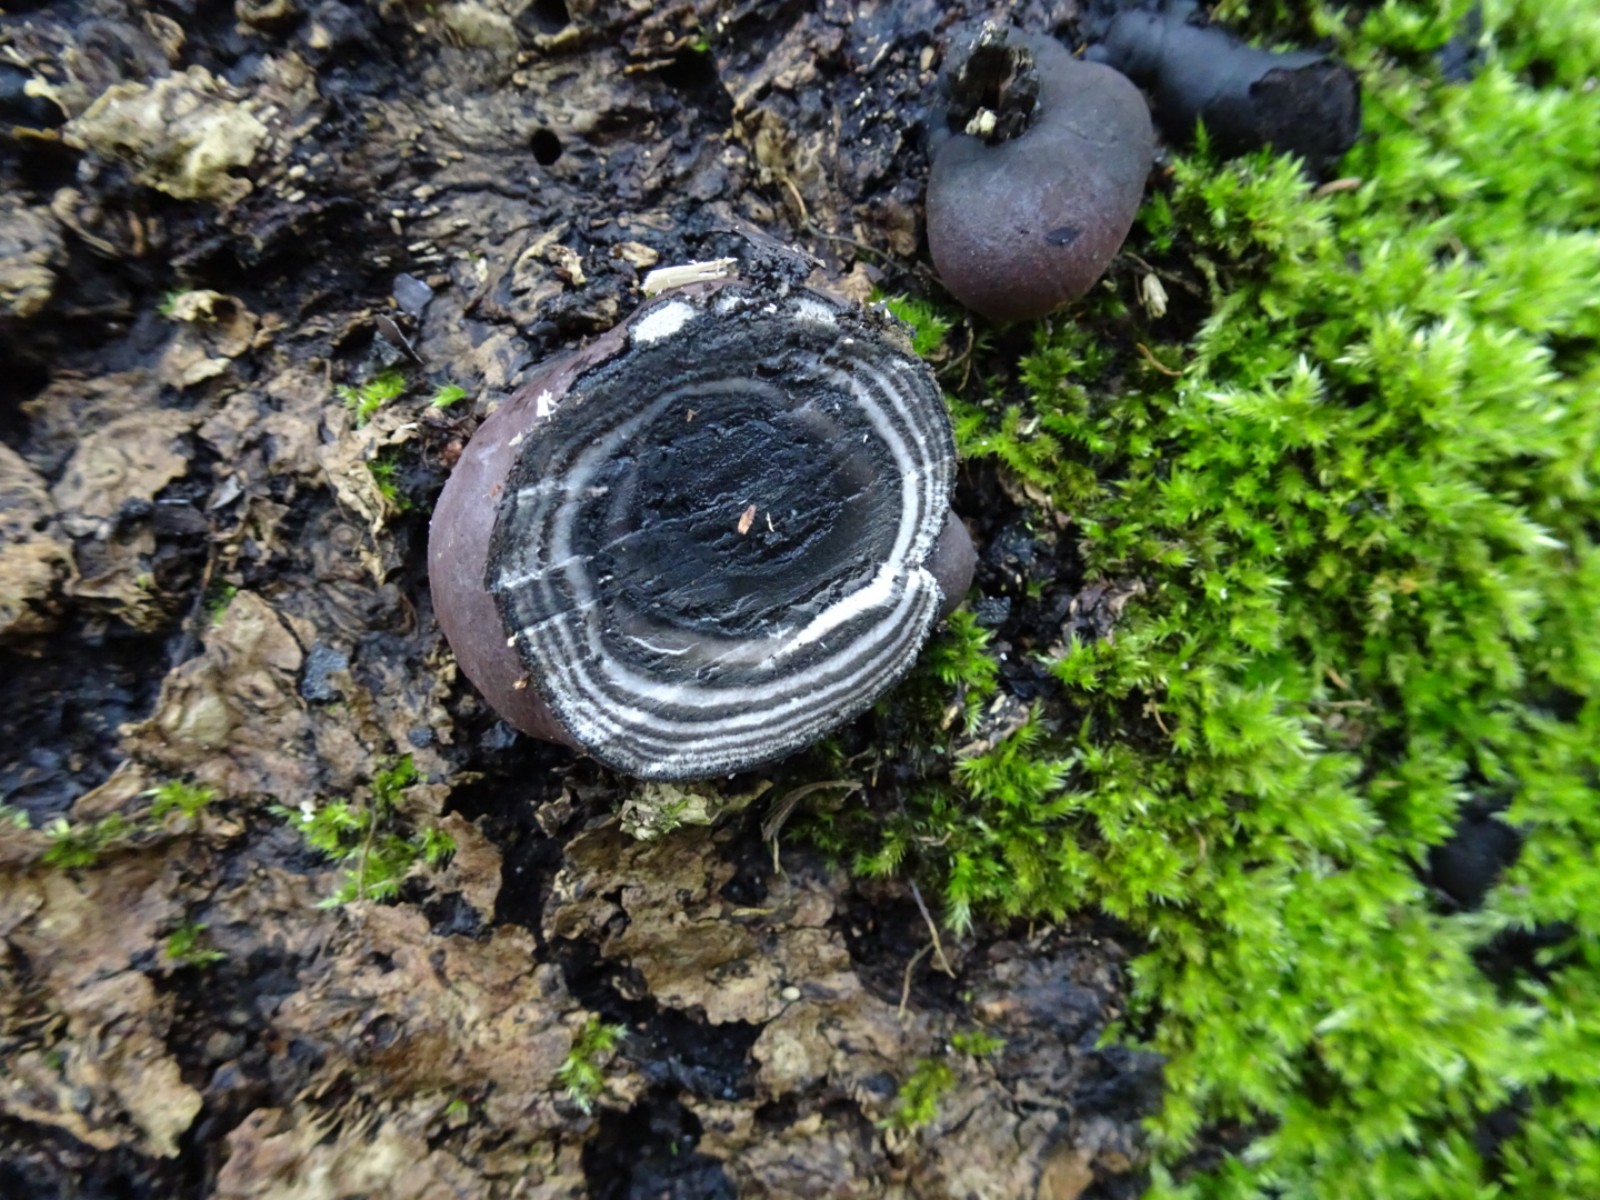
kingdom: Fungi
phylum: Ascomycota
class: Sordariomycetes
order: Xylariales
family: Hypoxylaceae
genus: Daldinia
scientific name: Daldinia concentrica
